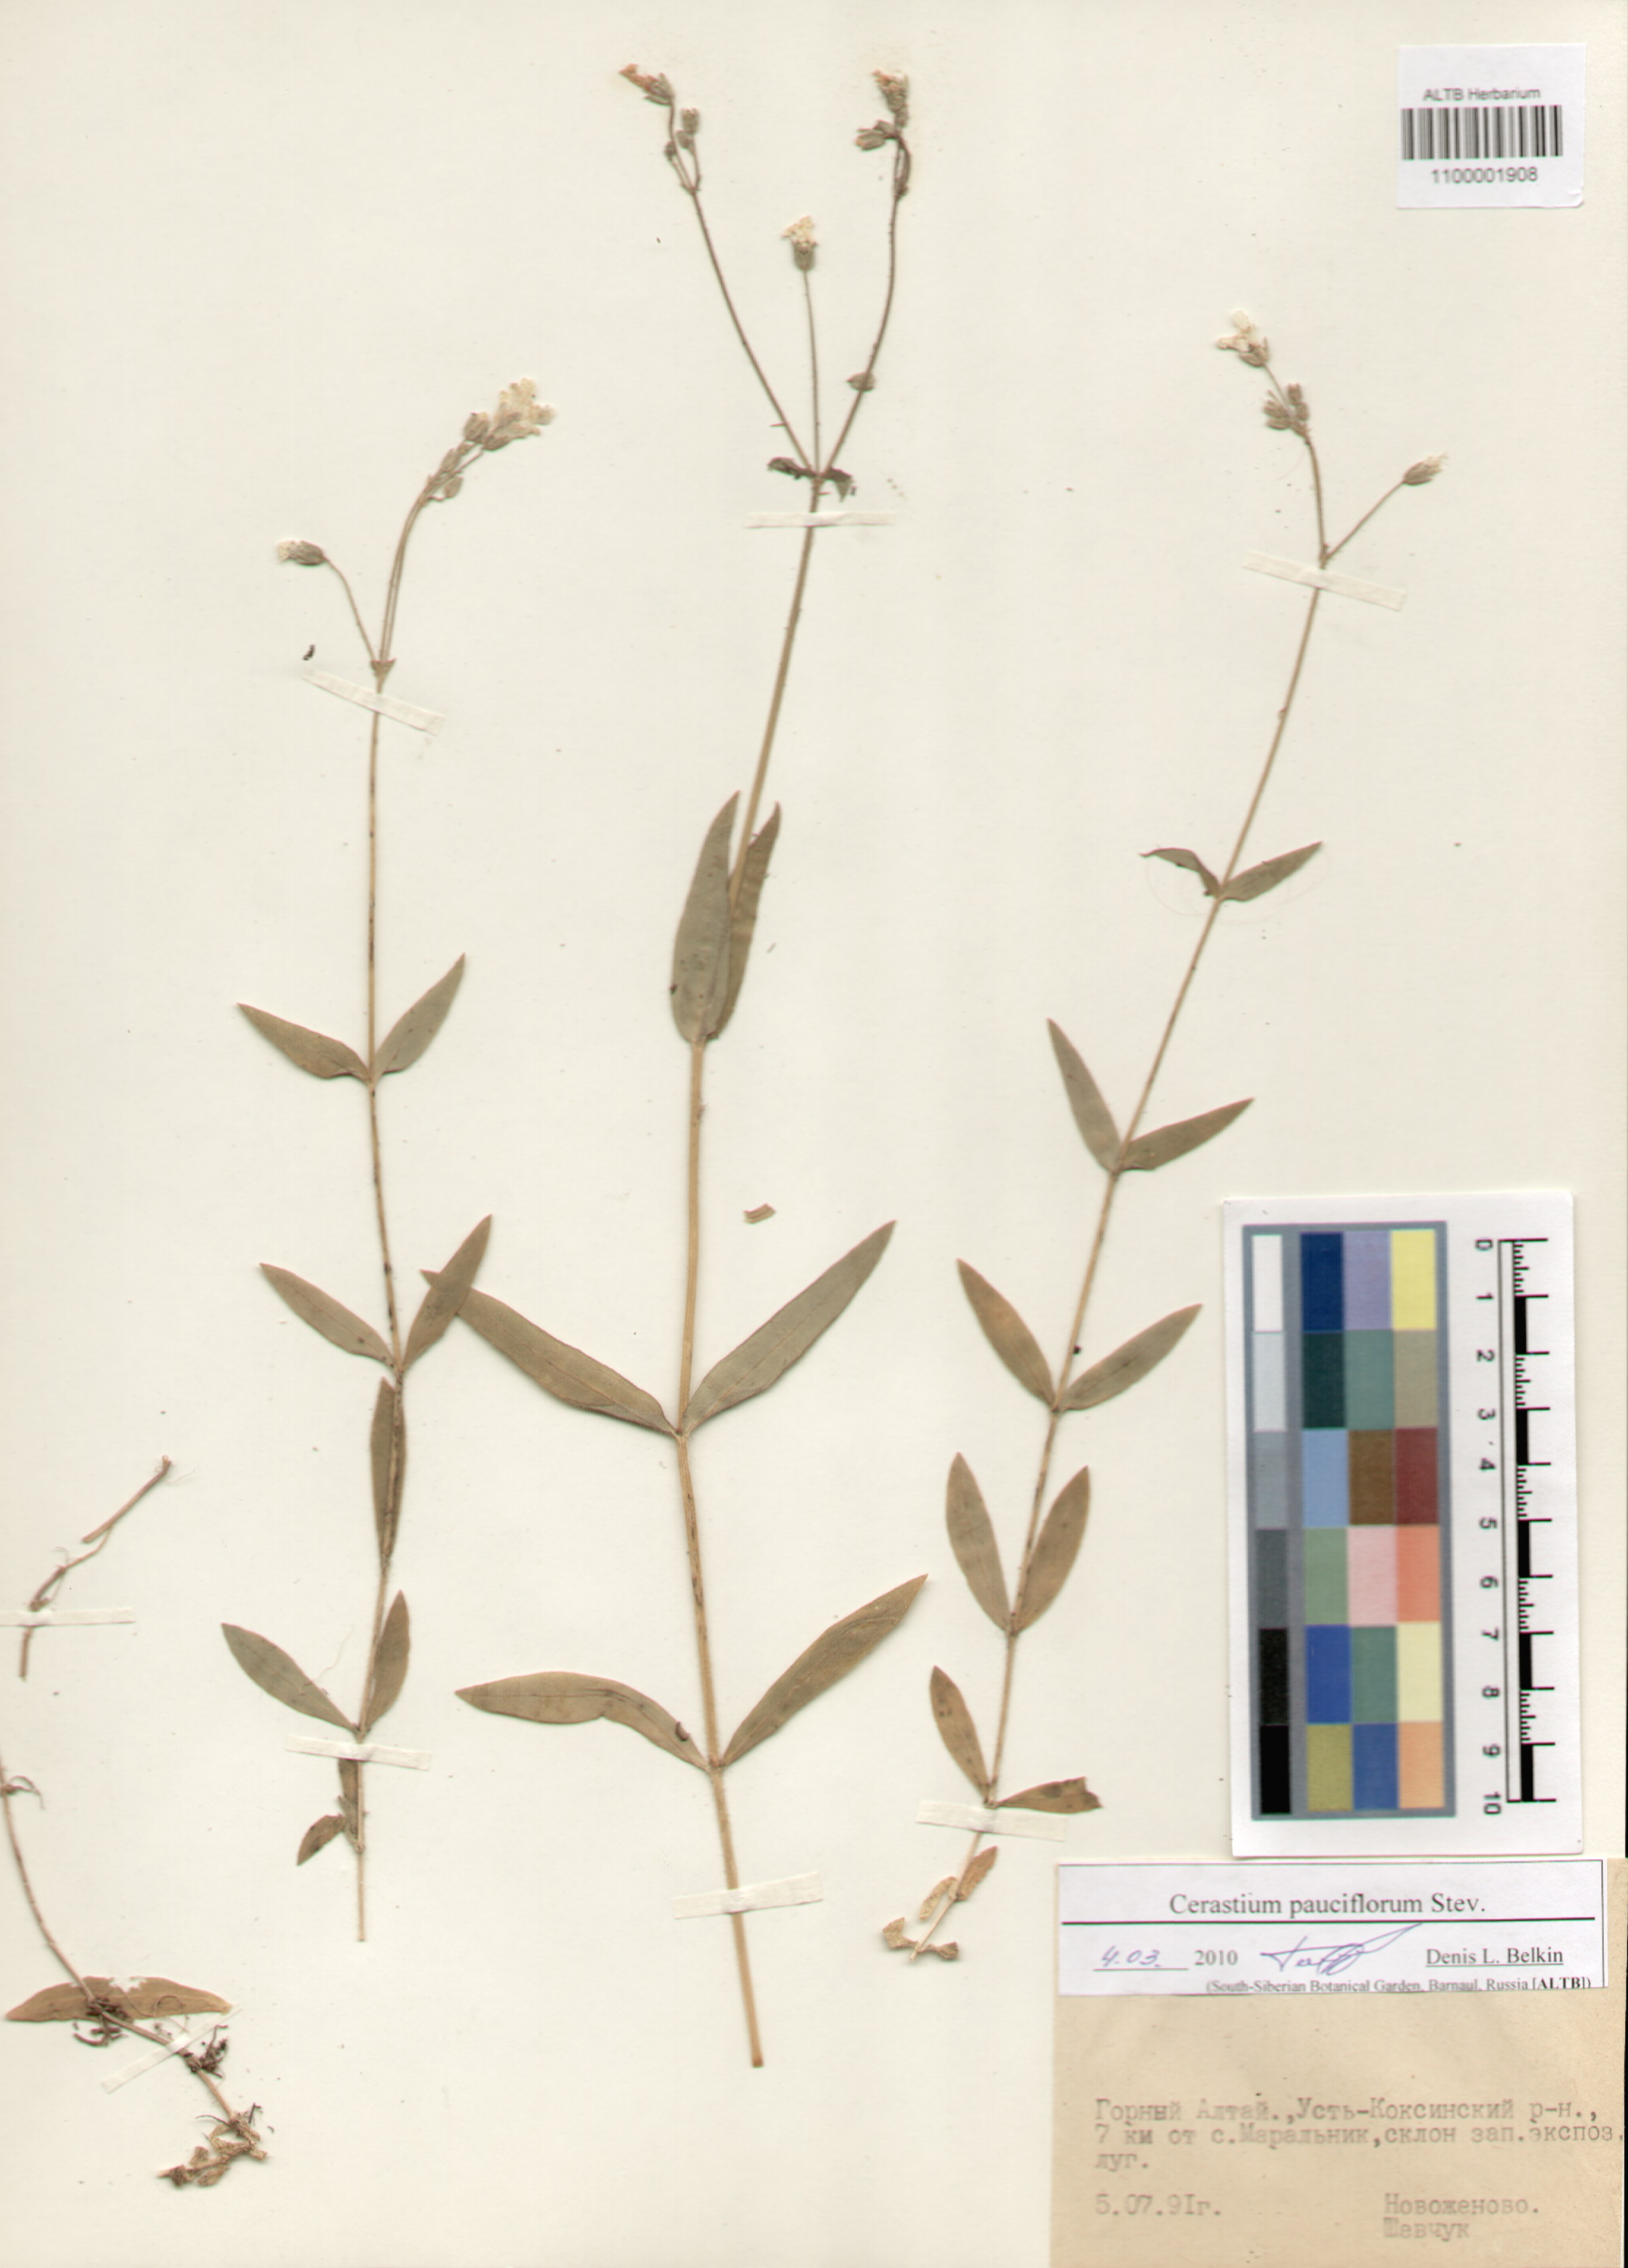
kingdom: Plantae
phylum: Tracheophyta
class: Magnoliopsida
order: Caryophyllales
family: Caryophyllaceae
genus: Cerastium
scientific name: Cerastium pauciflorum
